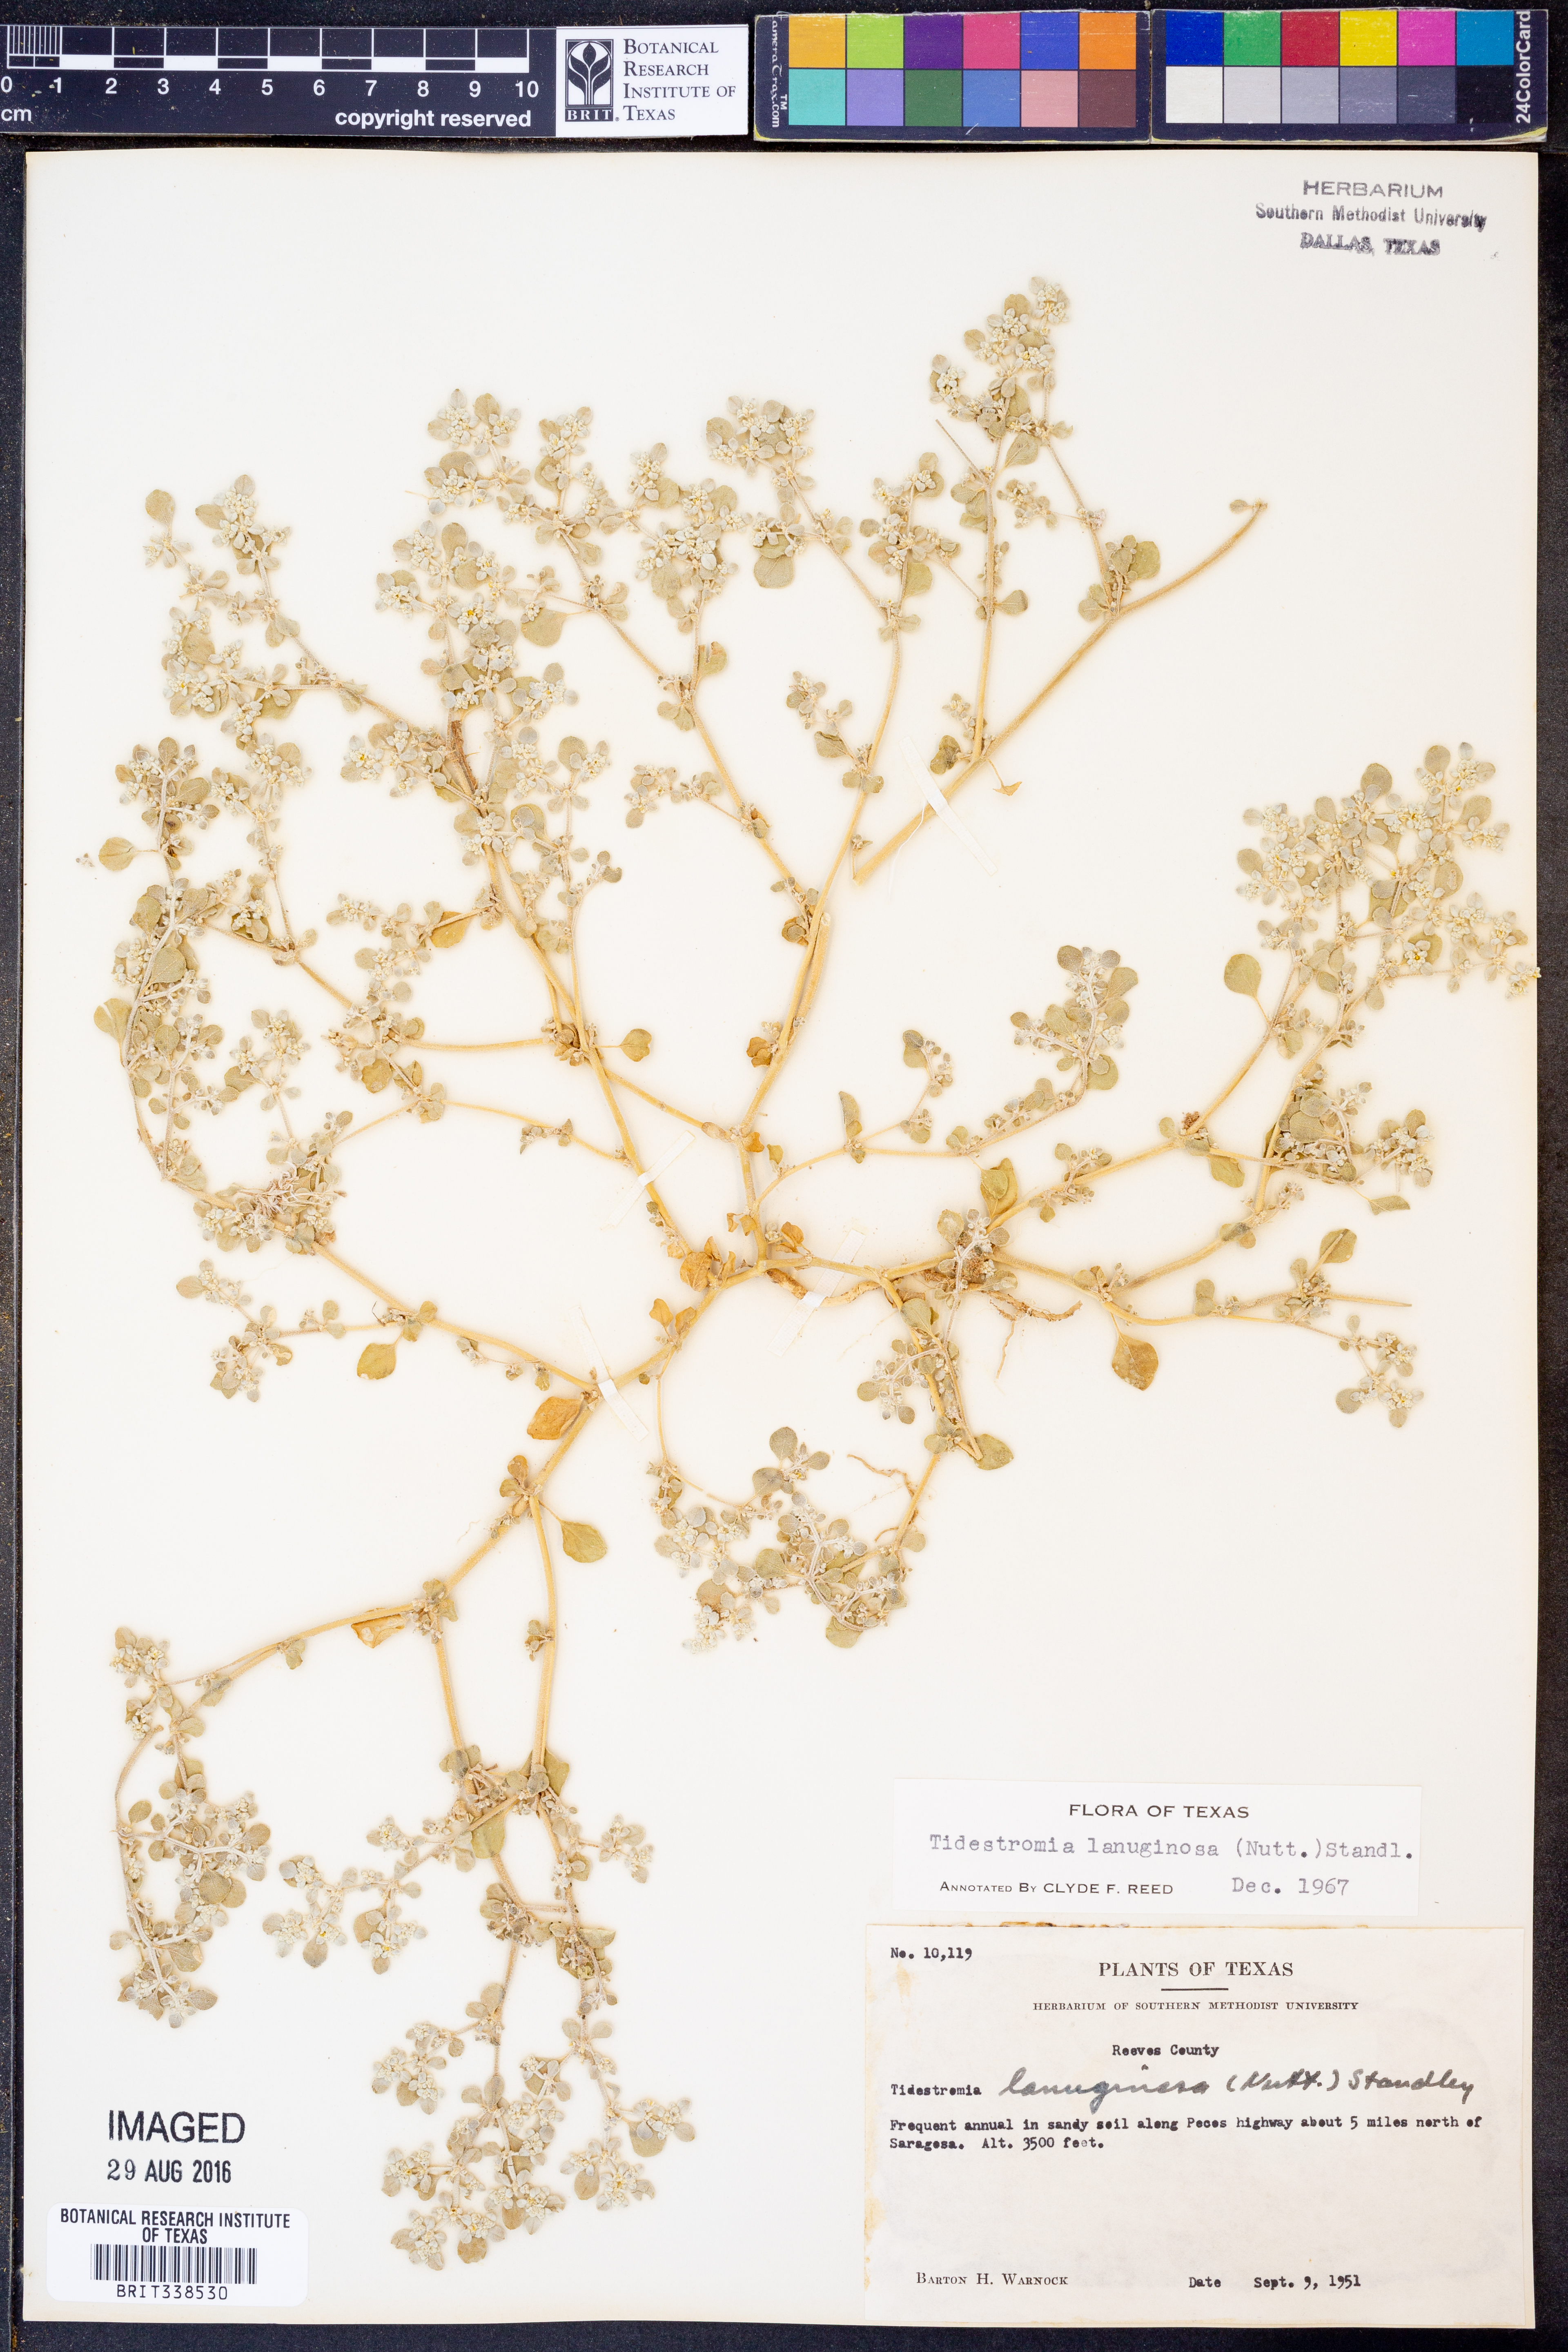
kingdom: Plantae
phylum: Tracheophyta
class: Magnoliopsida
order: Caryophyllales
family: Amaranthaceae
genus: Tidestromia
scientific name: Tidestromia lanuginosa
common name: Woolly tidestromia
